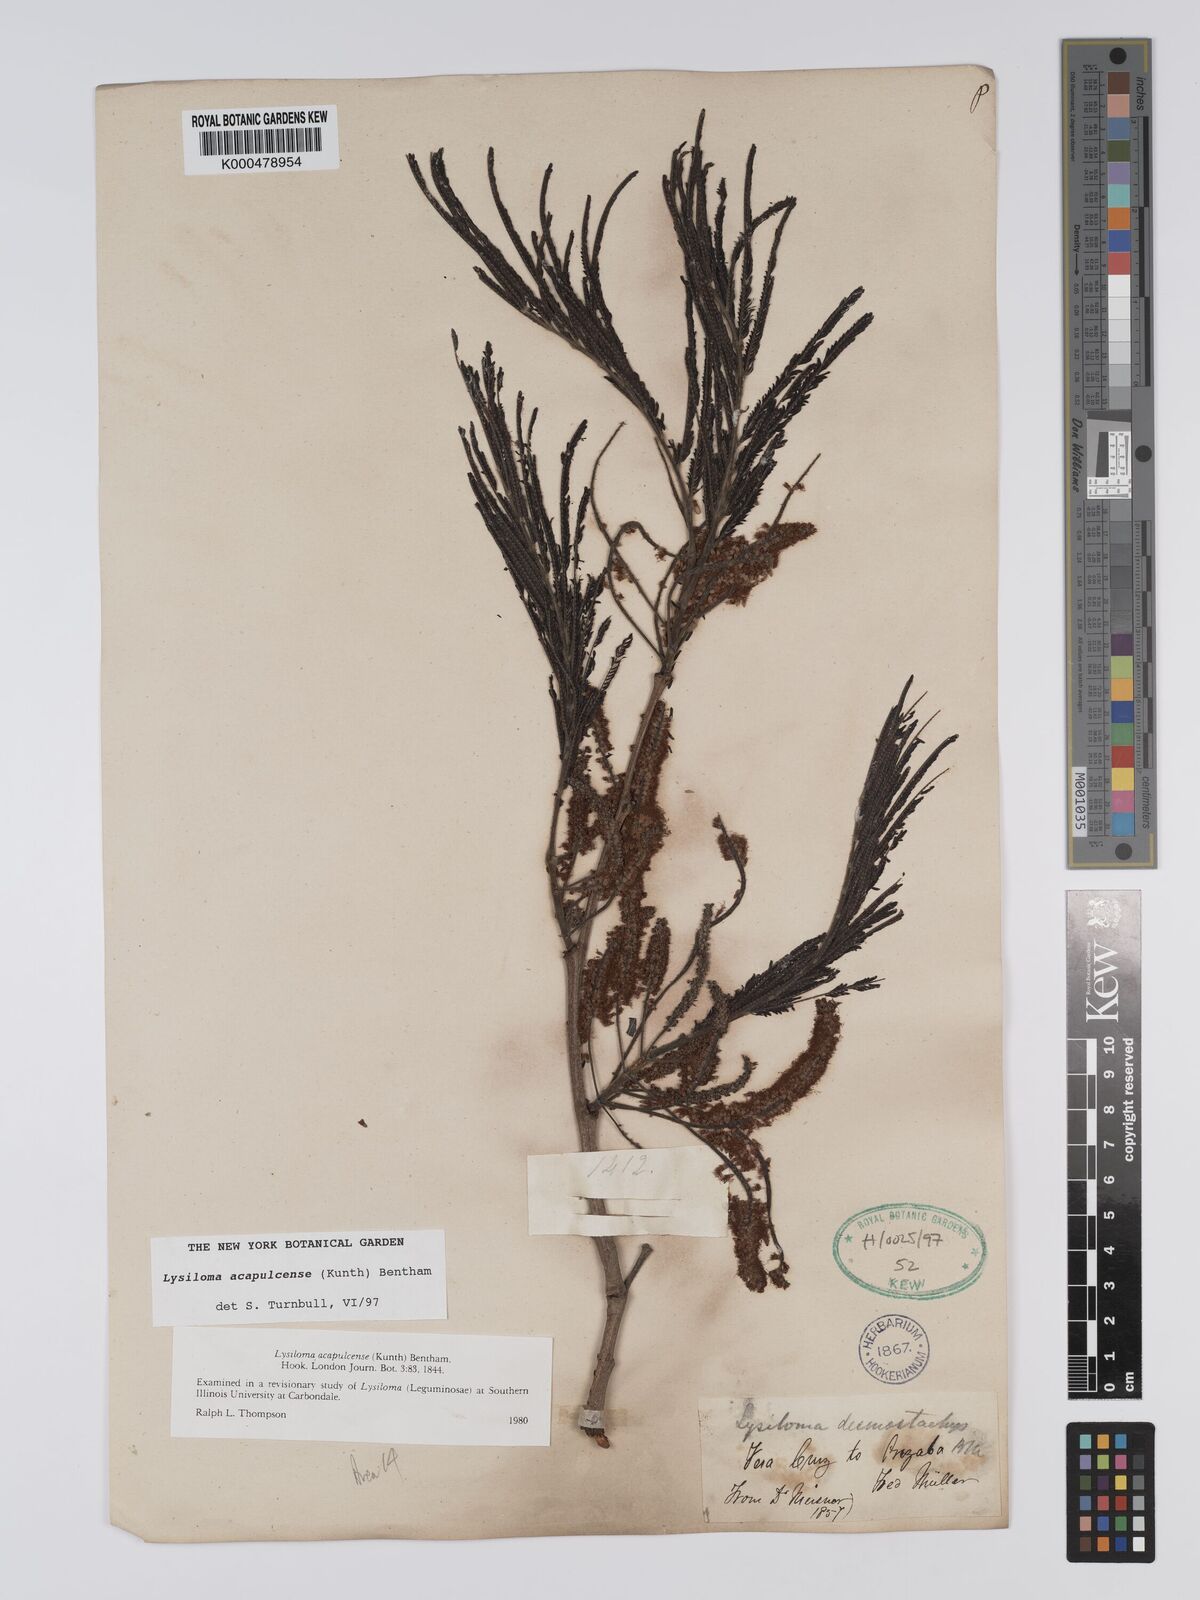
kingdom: Plantae
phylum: Tracheophyta
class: Magnoliopsida
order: Fabales
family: Fabaceae
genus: Lysiloma
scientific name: Lysiloma
